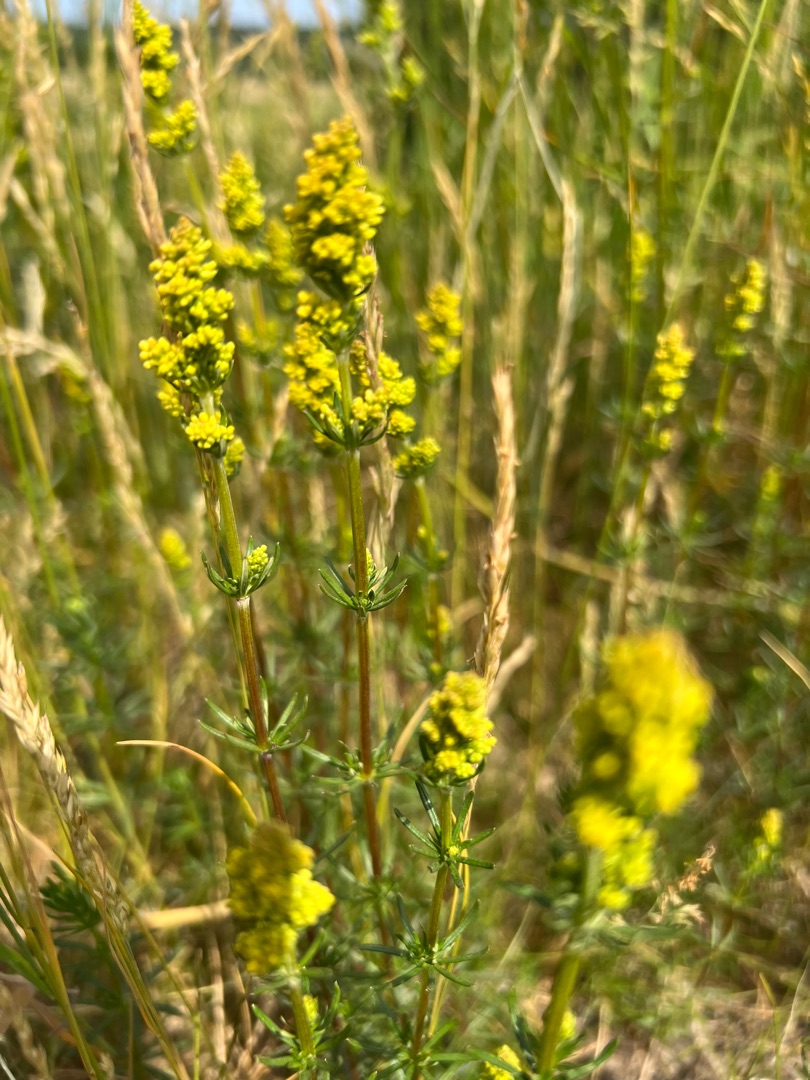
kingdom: Plantae
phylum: Tracheophyta
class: Magnoliopsida
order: Gentianales
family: Rubiaceae
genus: Galium
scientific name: Galium verum
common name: Gul snerre
